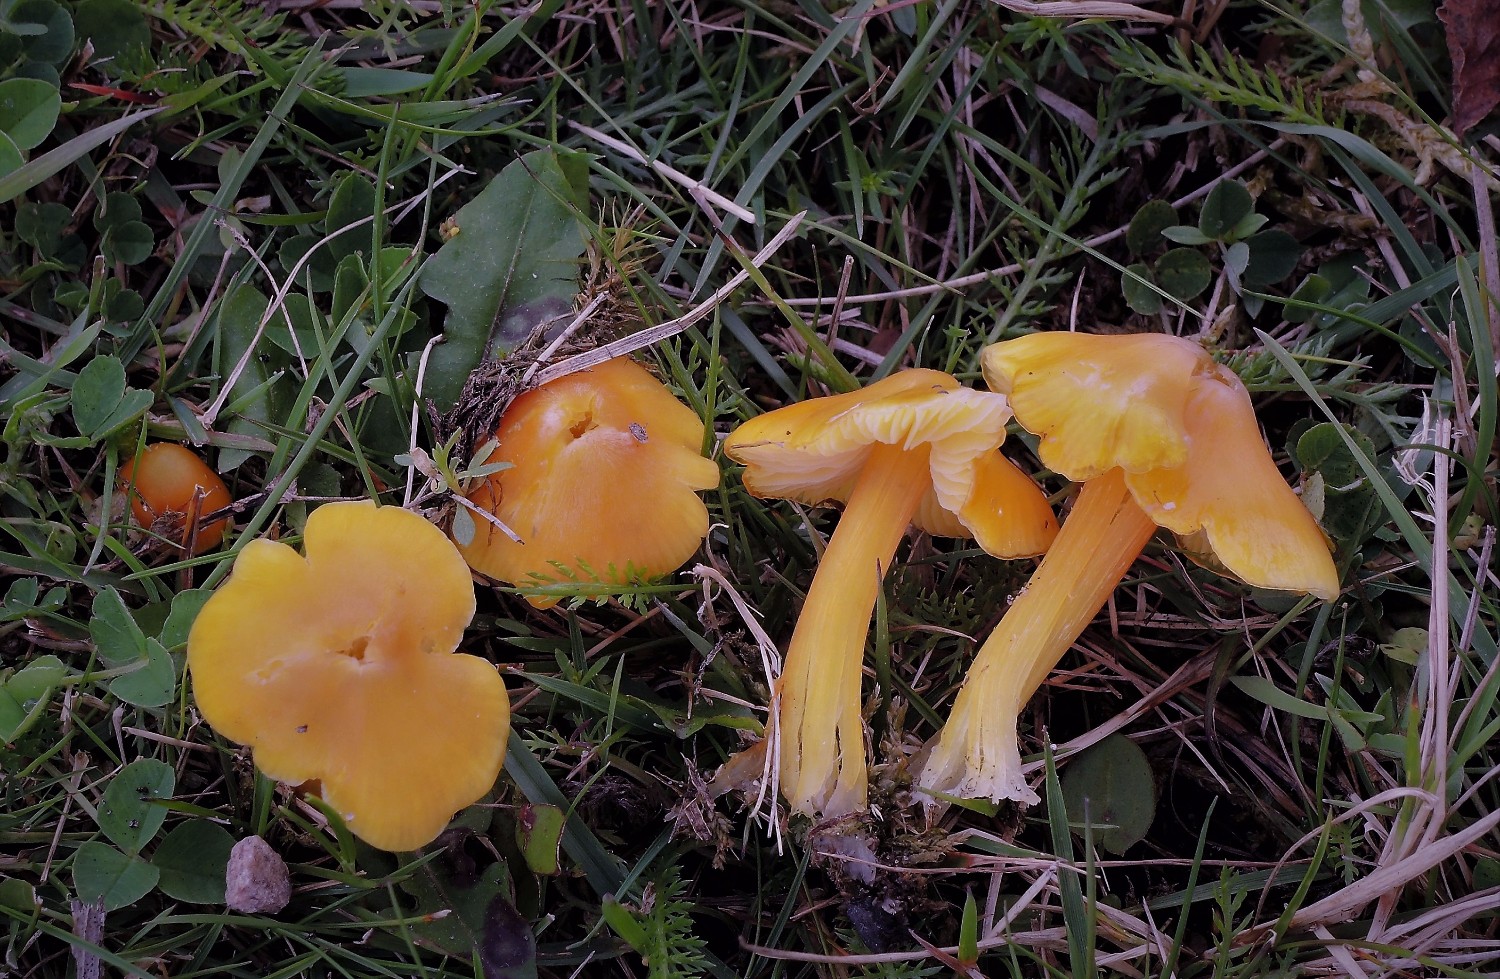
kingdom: Fungi
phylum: Basidiomycota
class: Agaricomycetes
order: Agaricales
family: Hygrophoraceae
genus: Hygrocybe
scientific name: Hygrocybe acutoconica
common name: spidspuklet vokshat
